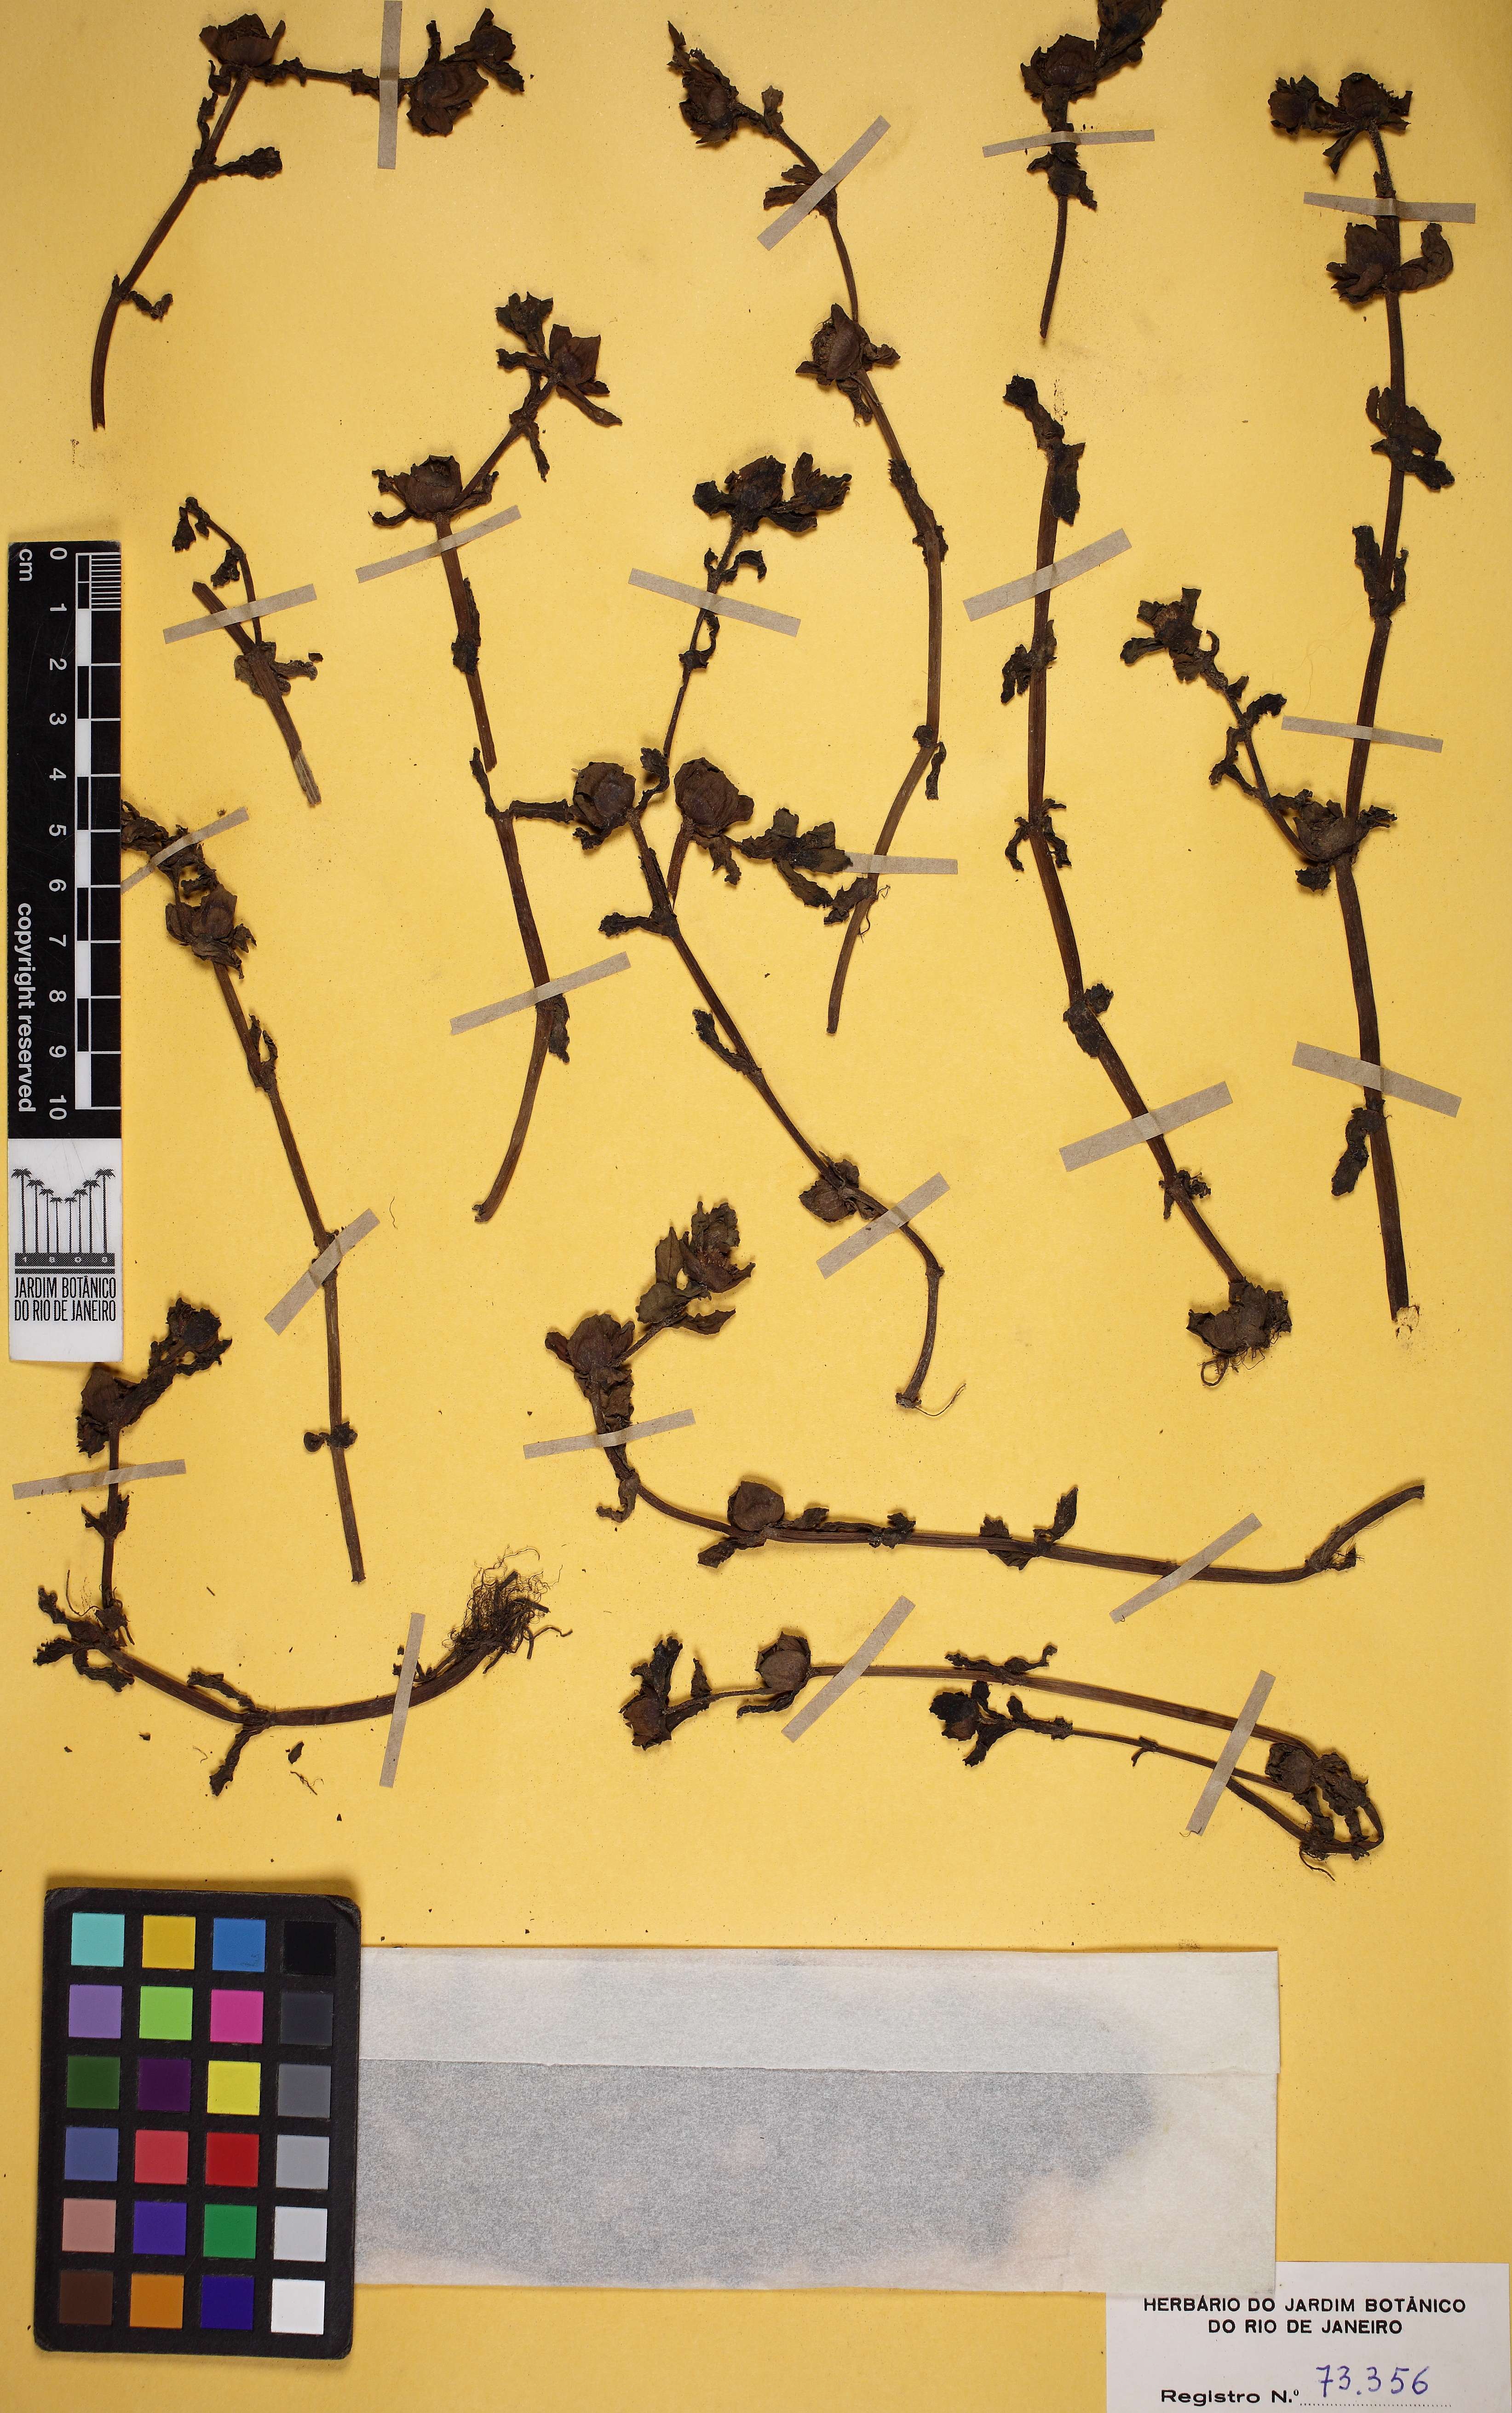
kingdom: Plantae
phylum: Tracheophyta
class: Magnoliopsida
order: Asterales
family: Asteraceae
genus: Enydra
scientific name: Enydra fluctuans
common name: Buffalo spinach
